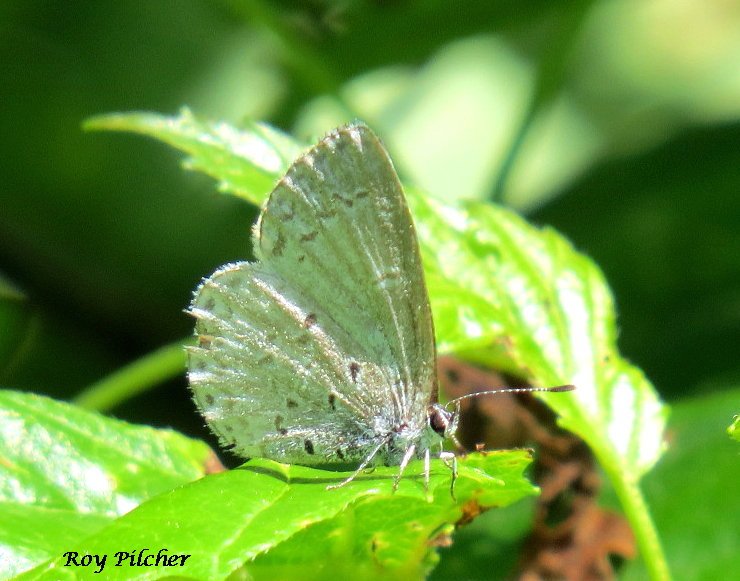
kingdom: Animalia
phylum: Arthropoda
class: Insecta
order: Lepidoptera
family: Lycaenidae
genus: Celastrina
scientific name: Celastrina lucia
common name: Northern Spring Azure
